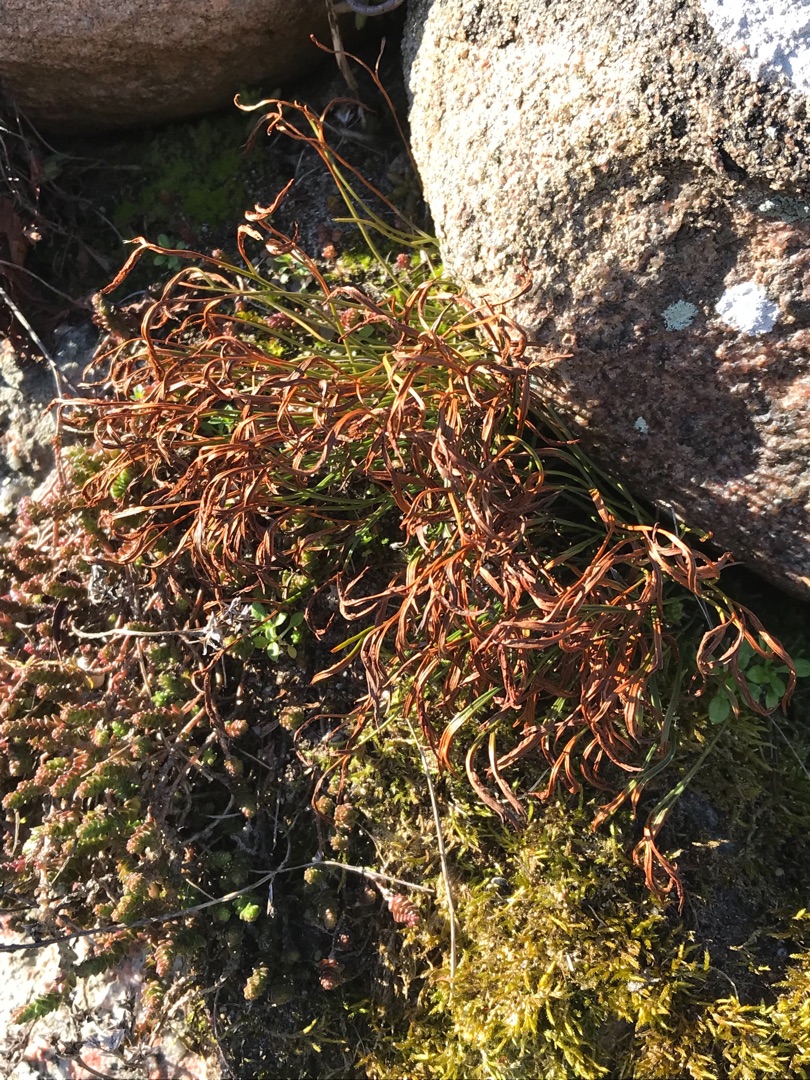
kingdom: Plantae
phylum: Tracheophyta
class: Polypodiopsida
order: Polypodiales
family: Aspleniaceae
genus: Asplenium
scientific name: Asplenium septentrionale
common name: Nordisk radeløv
